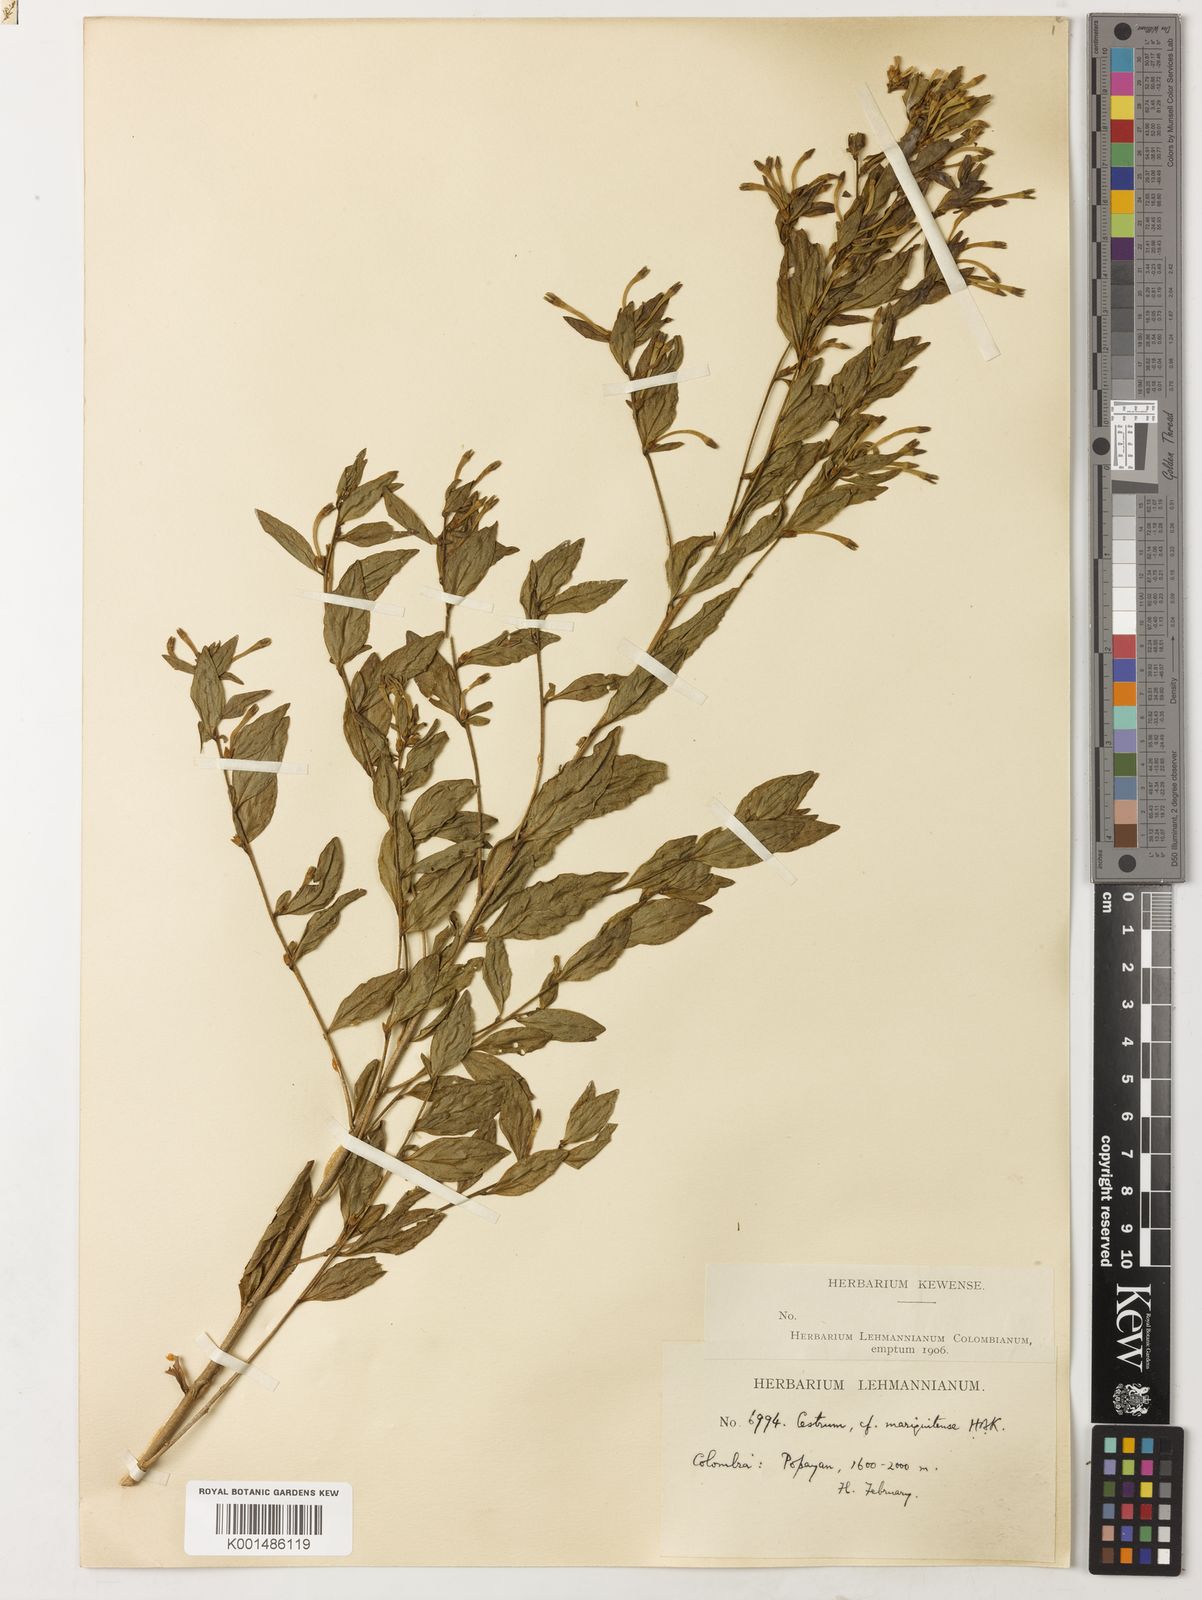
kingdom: Plantae
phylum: Tracheophyta
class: Magnoliopsida
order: Solanales
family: Solanaceae
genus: Cestrum
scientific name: Cestrum mariquitense
